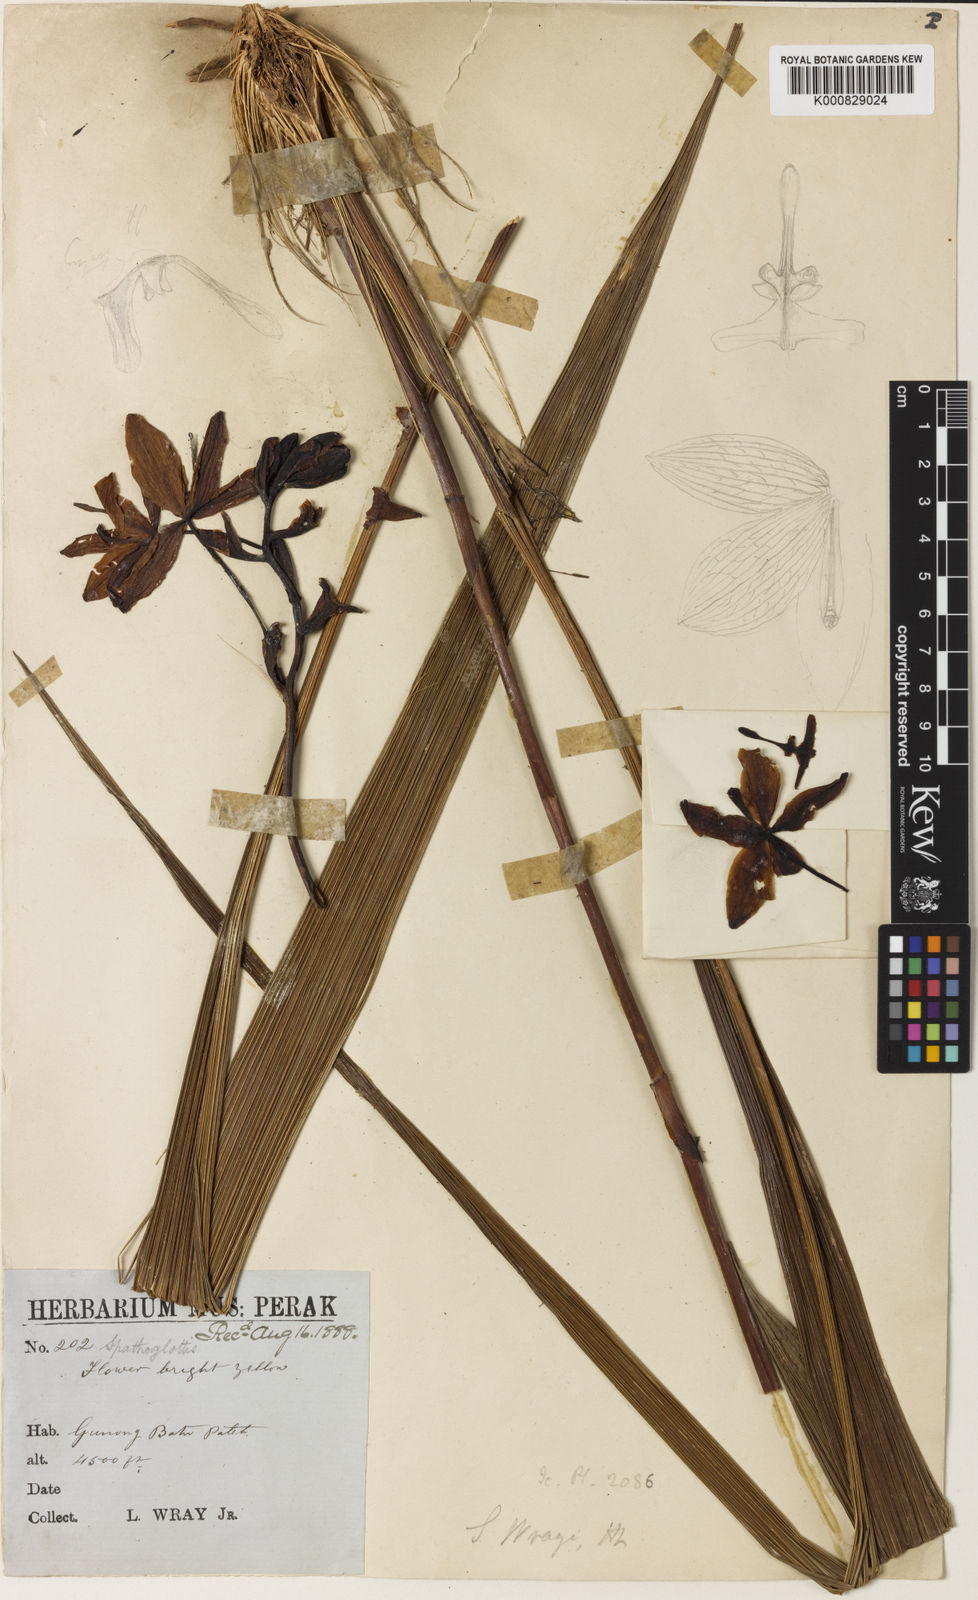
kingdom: Plantae
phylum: Tracheophyta
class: Liliopsida
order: Asparagales
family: Orchidaceae
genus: Spathoglottis
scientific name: Spathoglottis aurea
